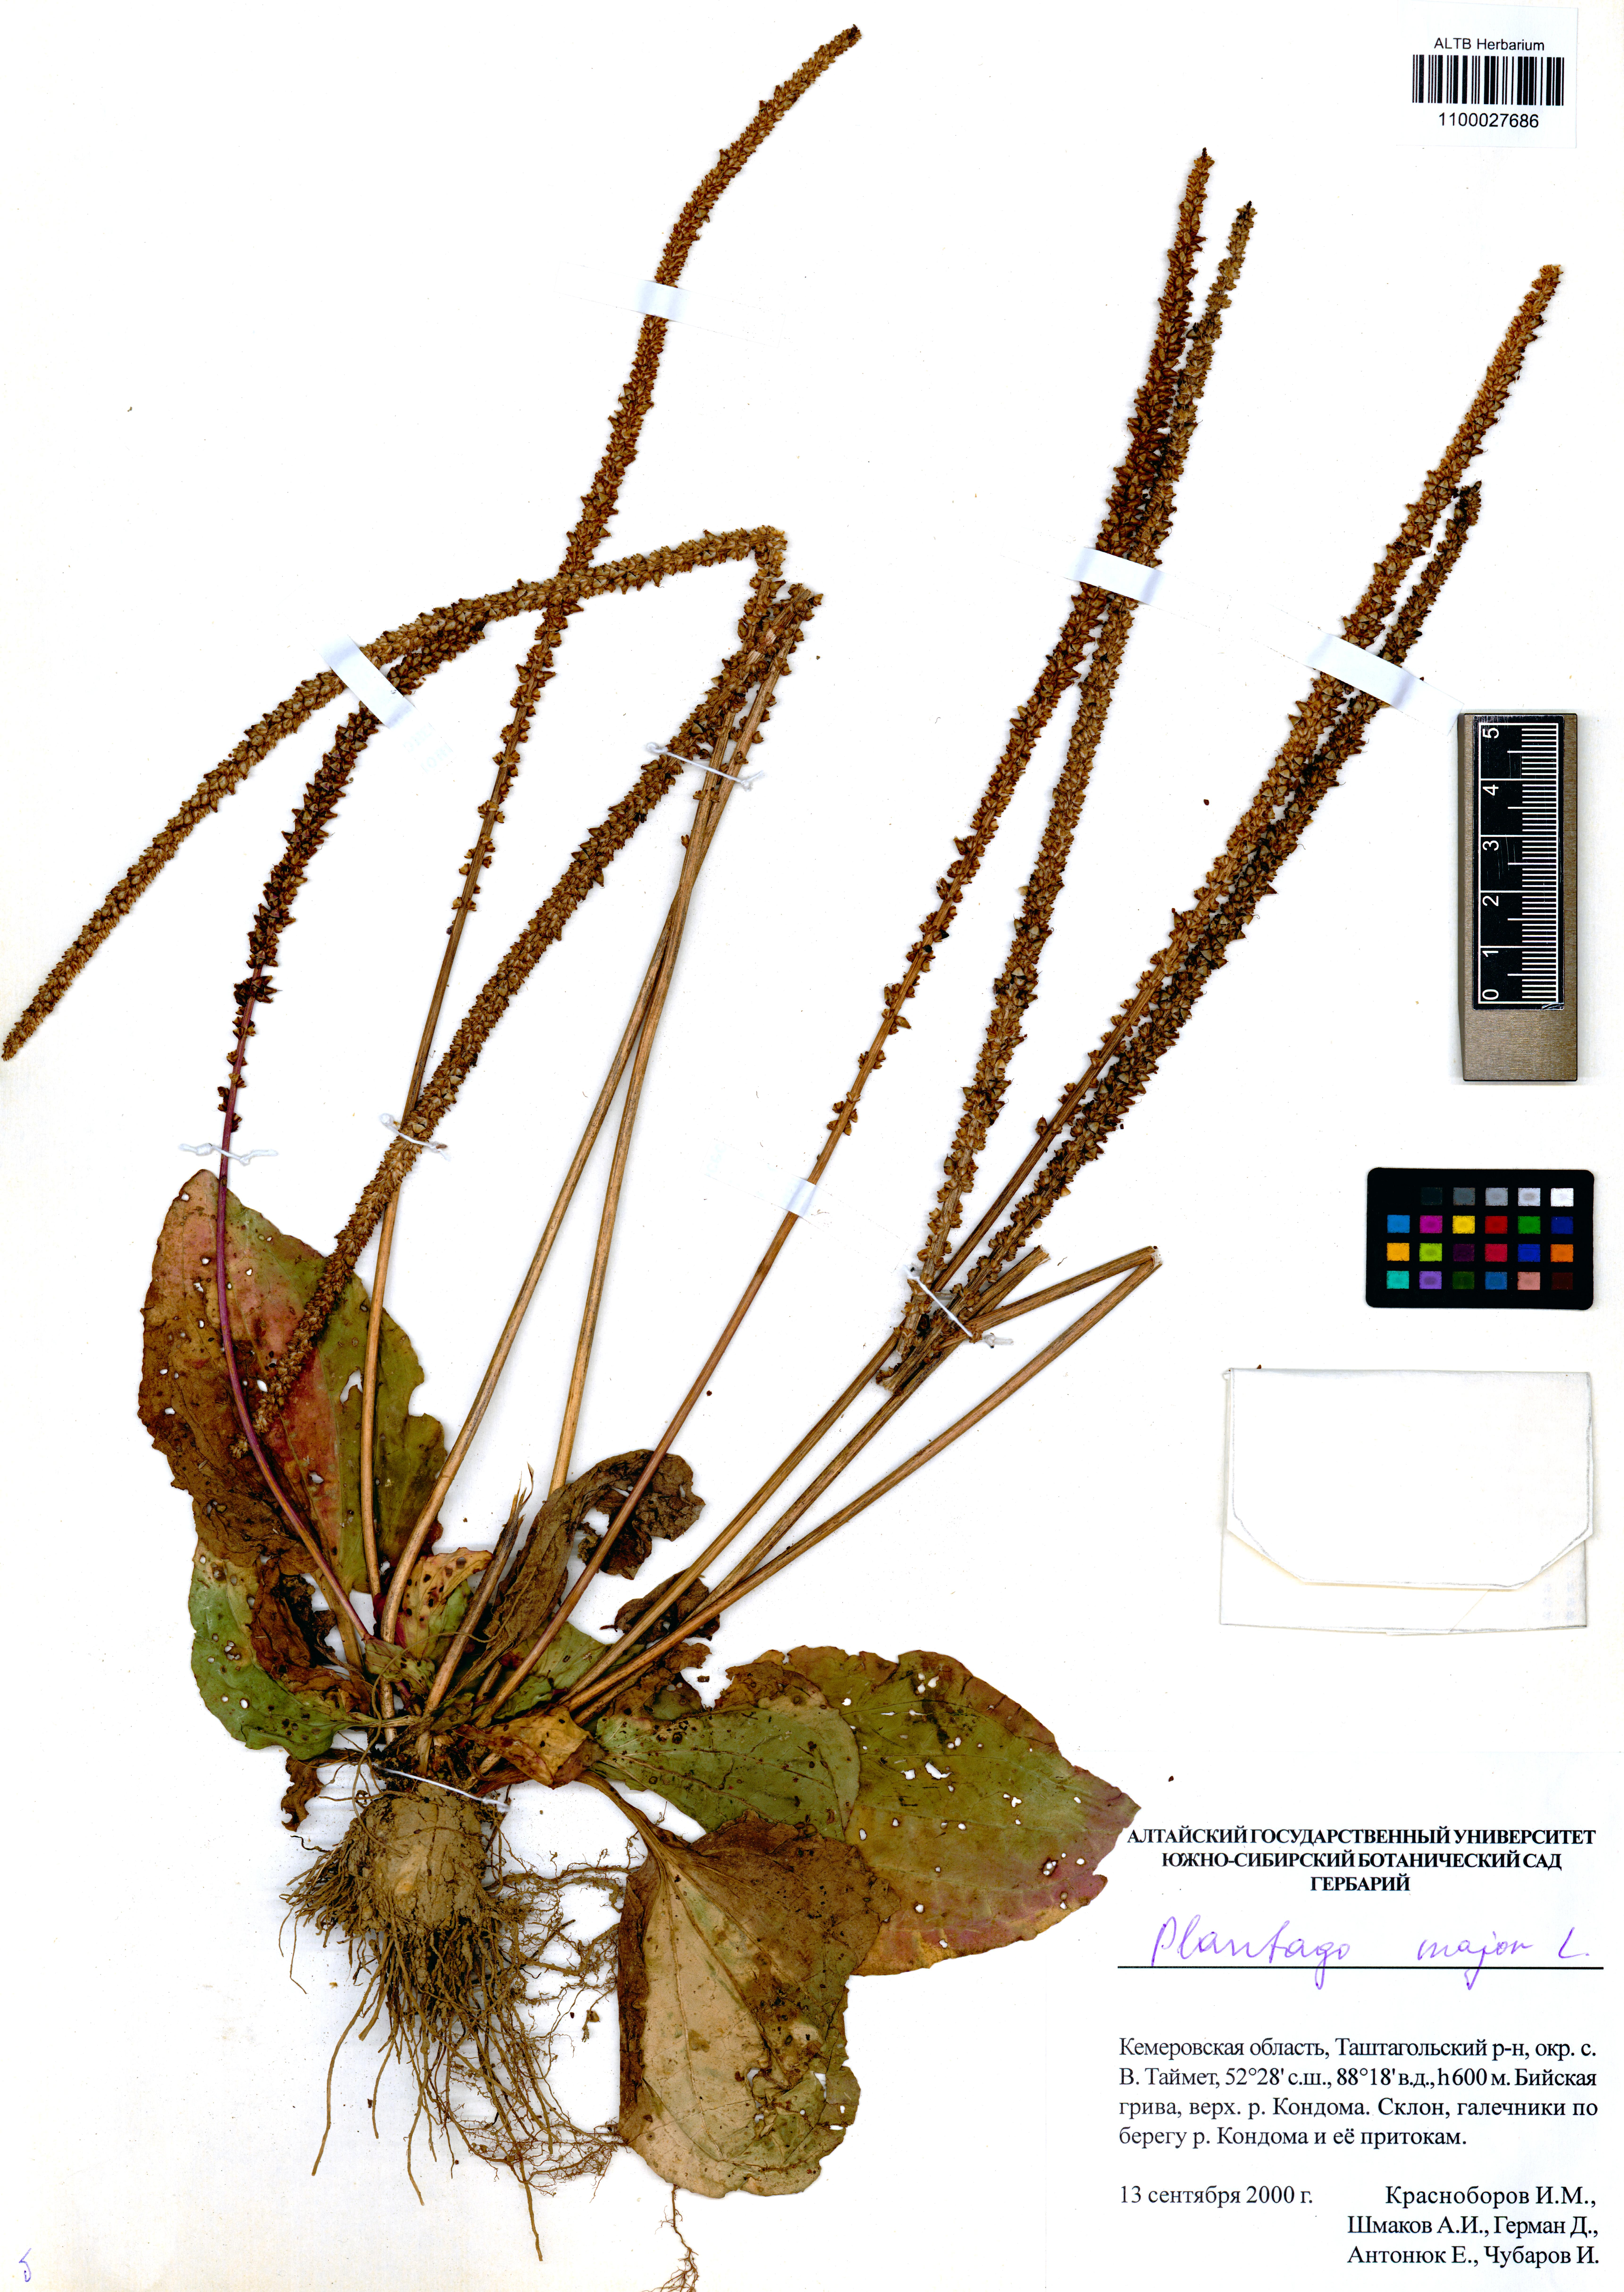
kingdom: Plantae
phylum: Tracheophyta
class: Magnoliopsida
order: Lamiales
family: Plantaginaceae
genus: Plantago
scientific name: Plantago major
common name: Common plantain
